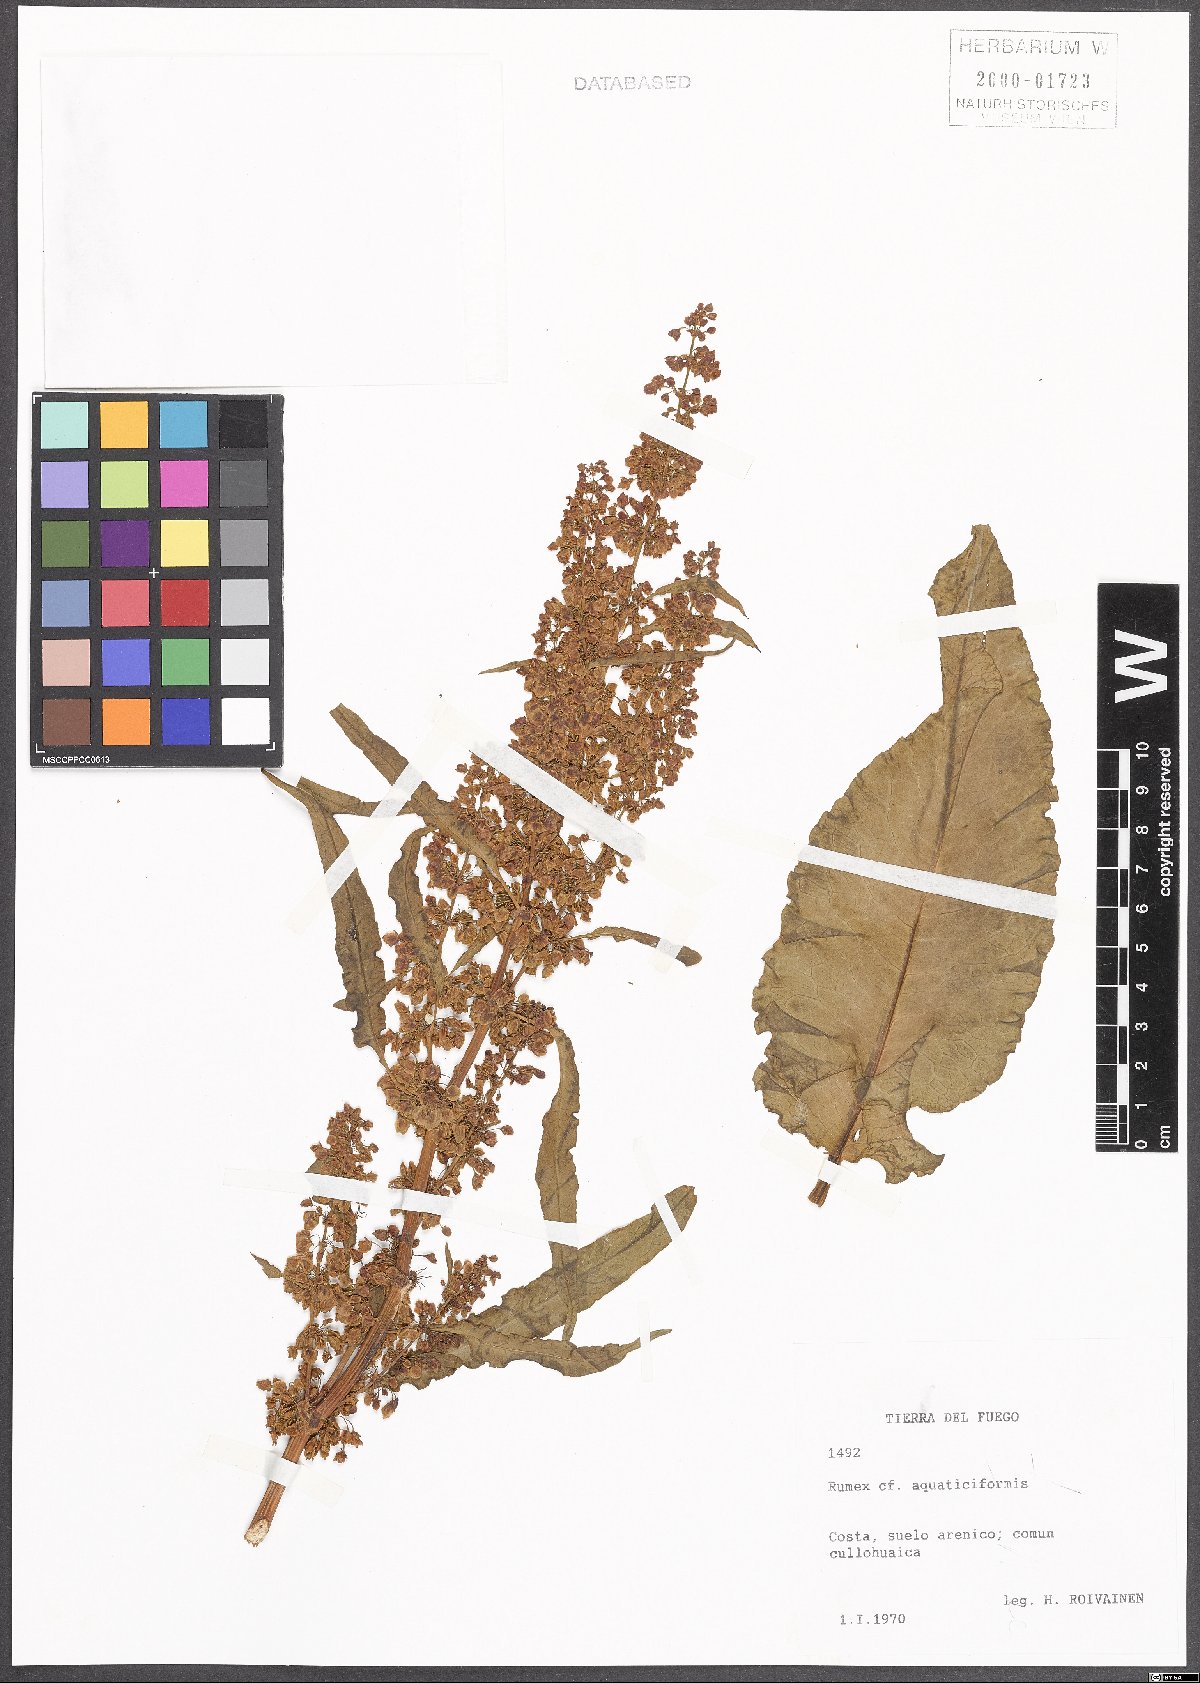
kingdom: Plantae
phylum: Tracheophyta
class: Magnoliopsida
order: Caryophyllales
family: Polygonaceae
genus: Rumex
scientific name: Rumex aquaticiformis
